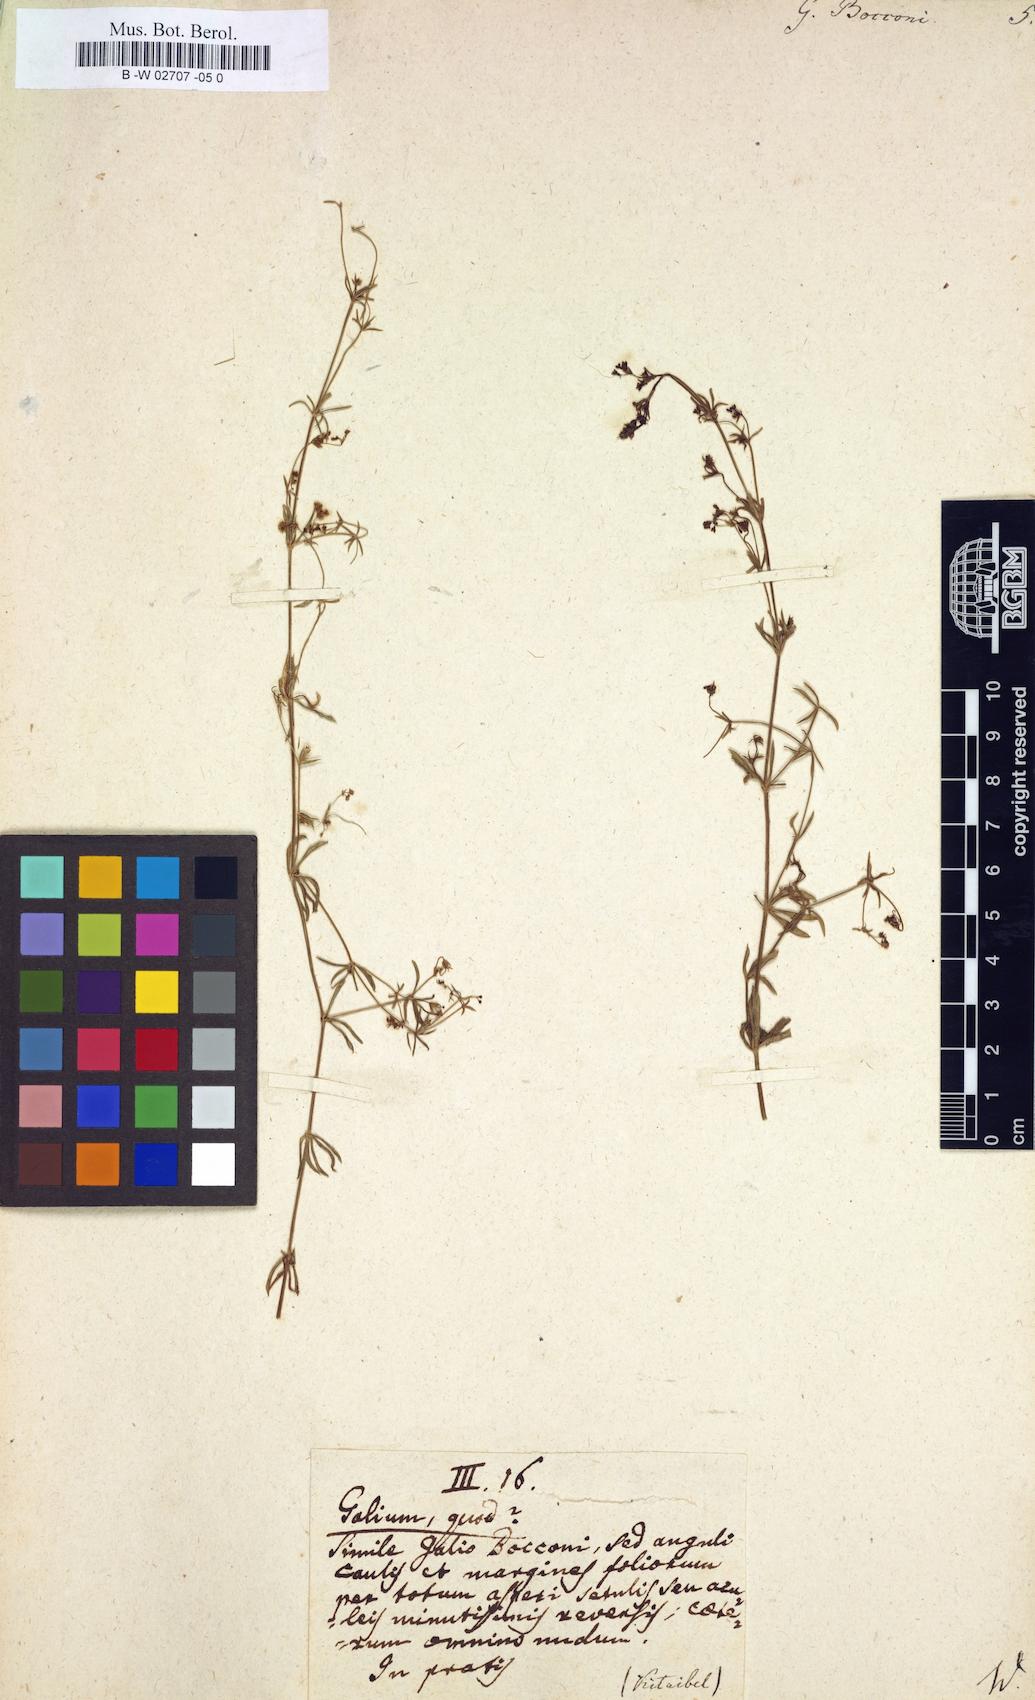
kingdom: Plantae
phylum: Tracheophyta
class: Magnoliopsida
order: Gentianales
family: Rubiaceae
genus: Galium
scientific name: Galium
